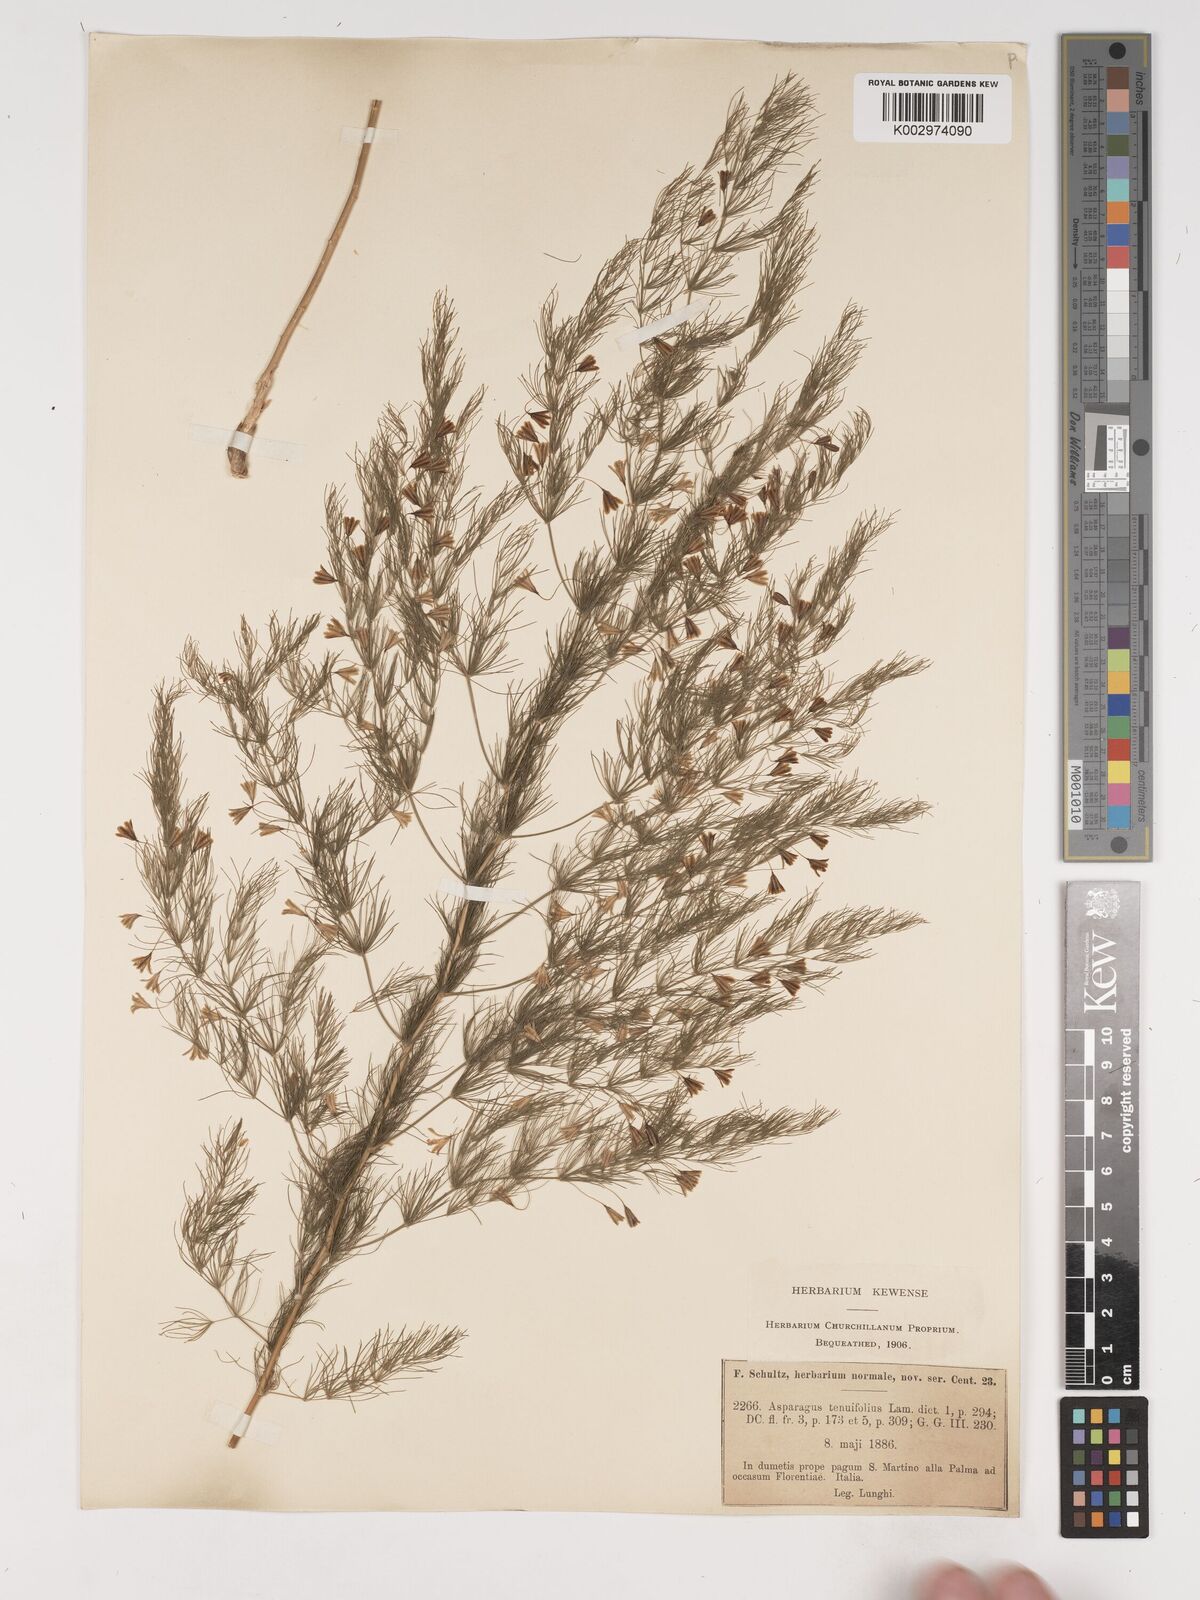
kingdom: Plantae
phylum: Tracheophyta
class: Liliopsida
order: Asparagales
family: Asparagaceae
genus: Asparagus
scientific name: Asparagus tenuifolius
